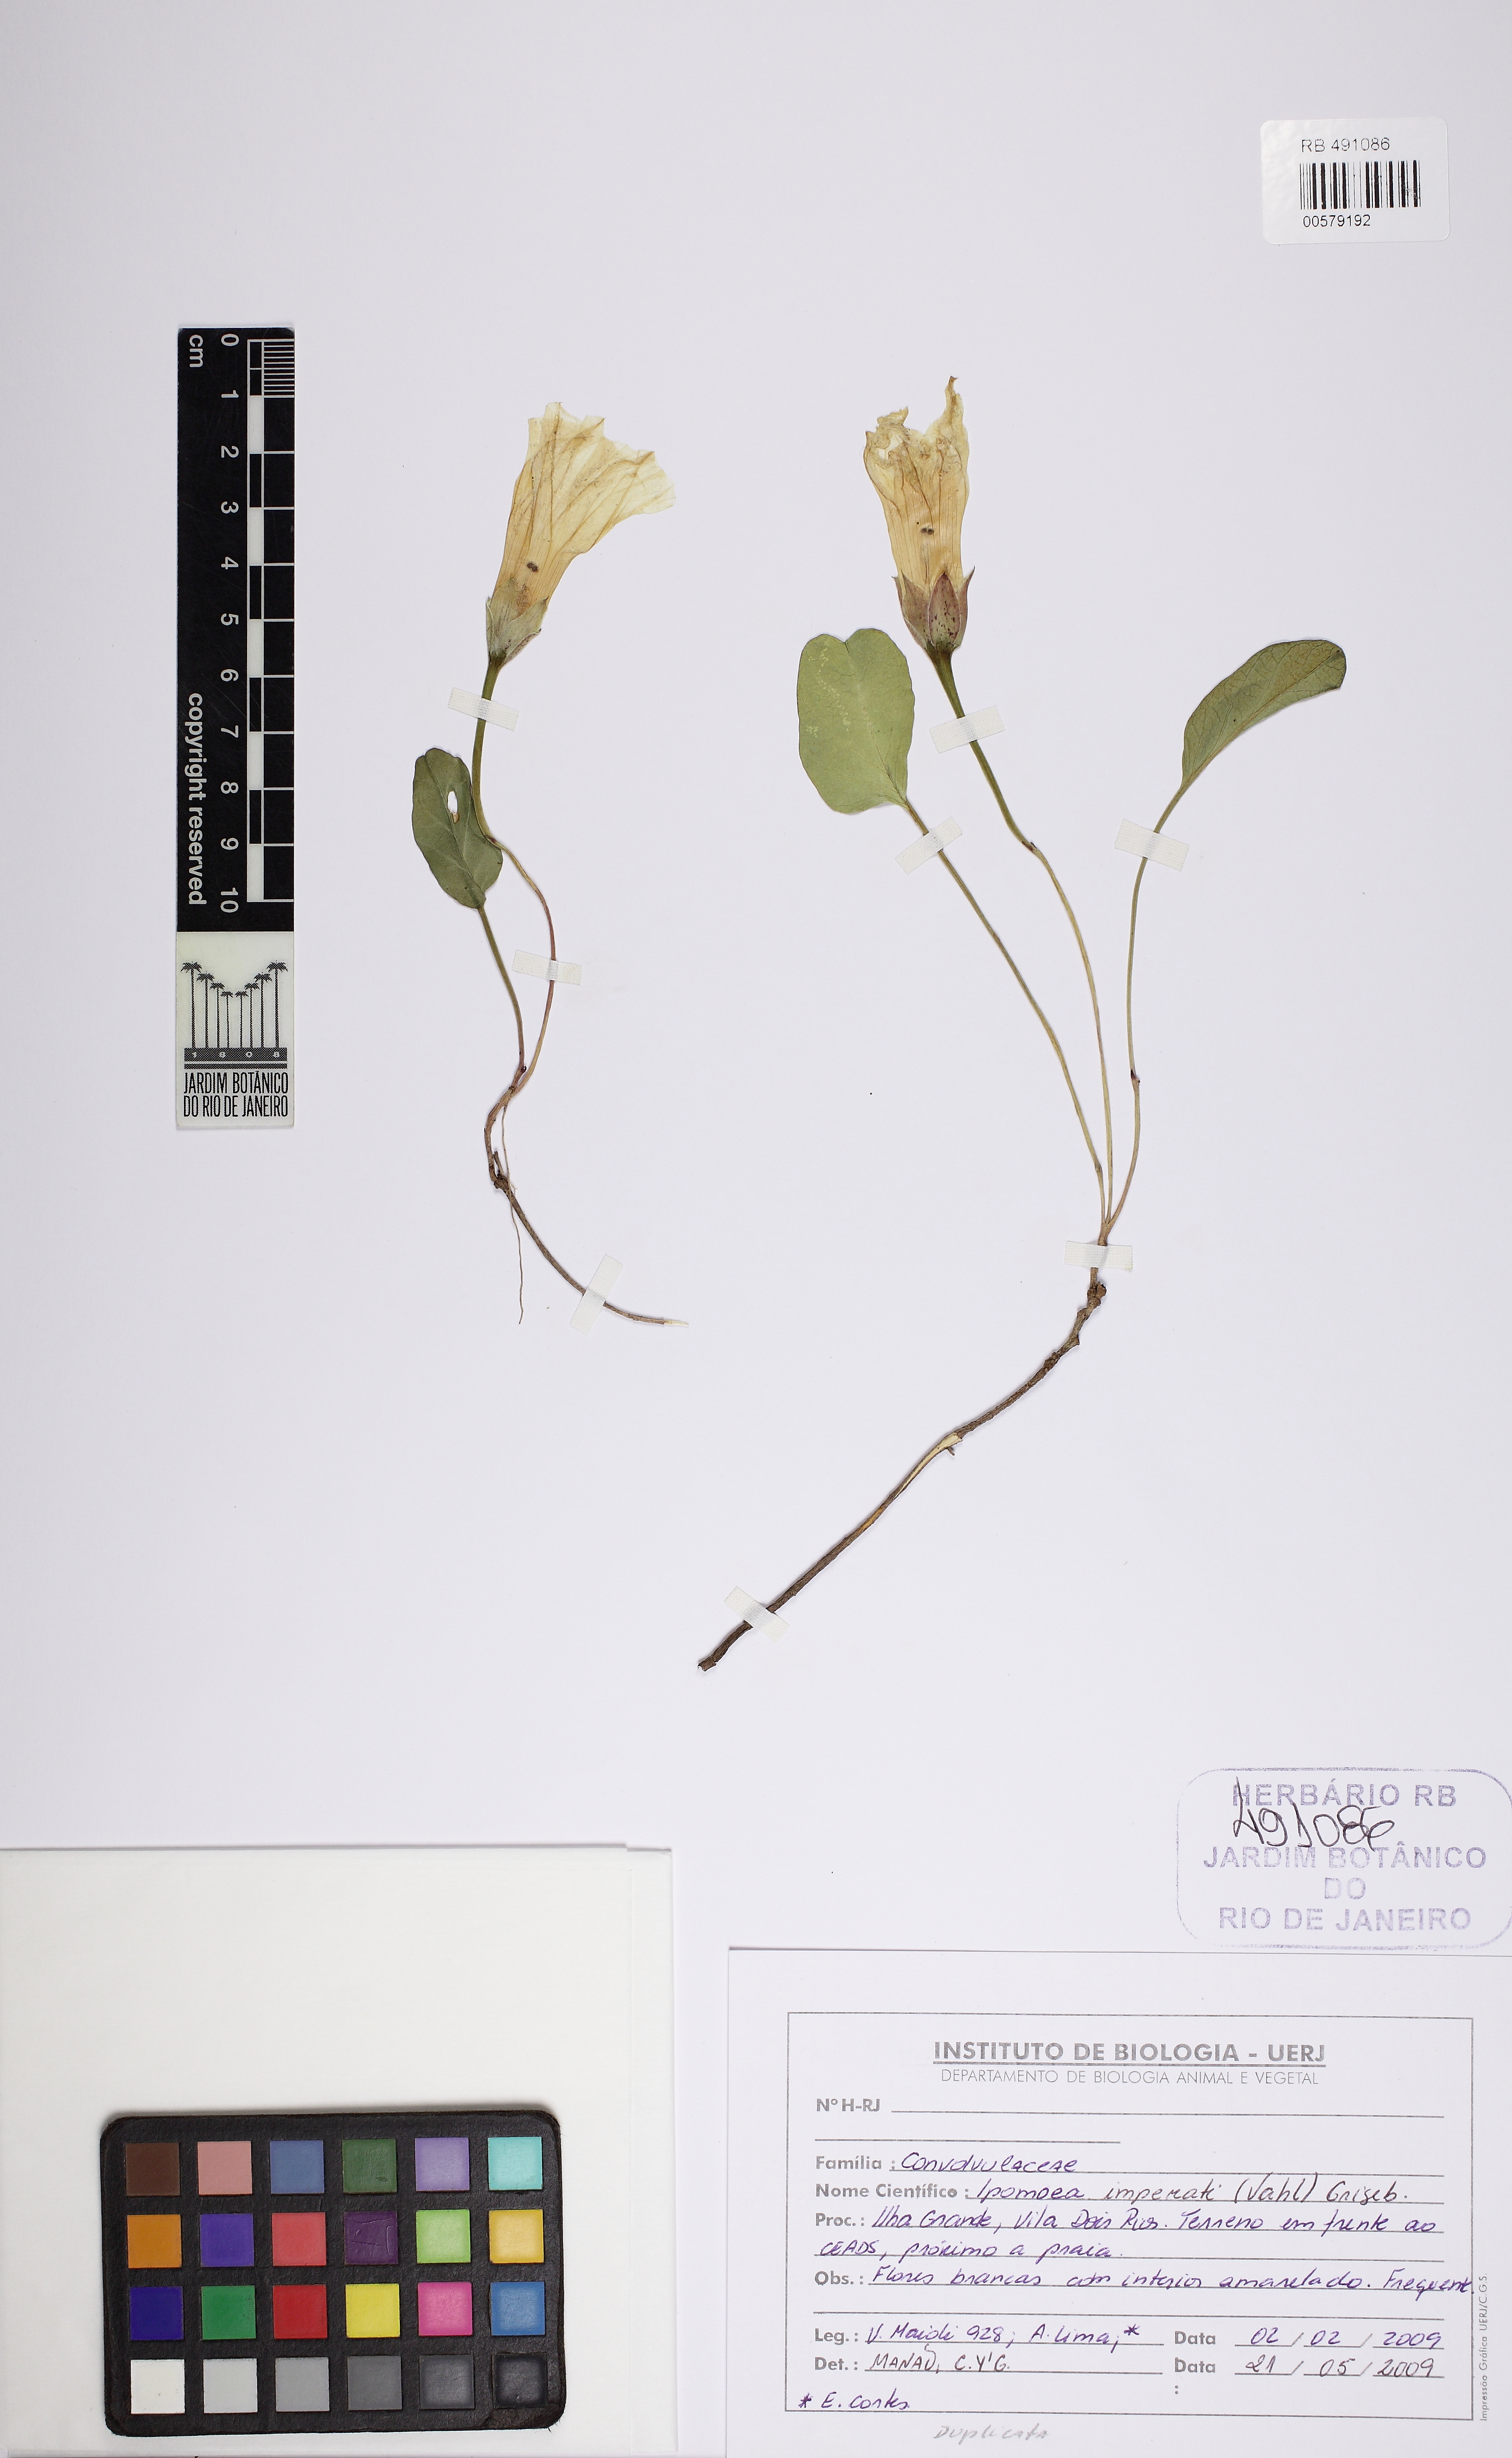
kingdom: Plantae
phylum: Tracheophyta
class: Magnoliopsida
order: Solanales
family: Convolvulaceae
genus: Ipomoea
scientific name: Ipomoea imperati
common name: Fiddle-leaf morning-glory
